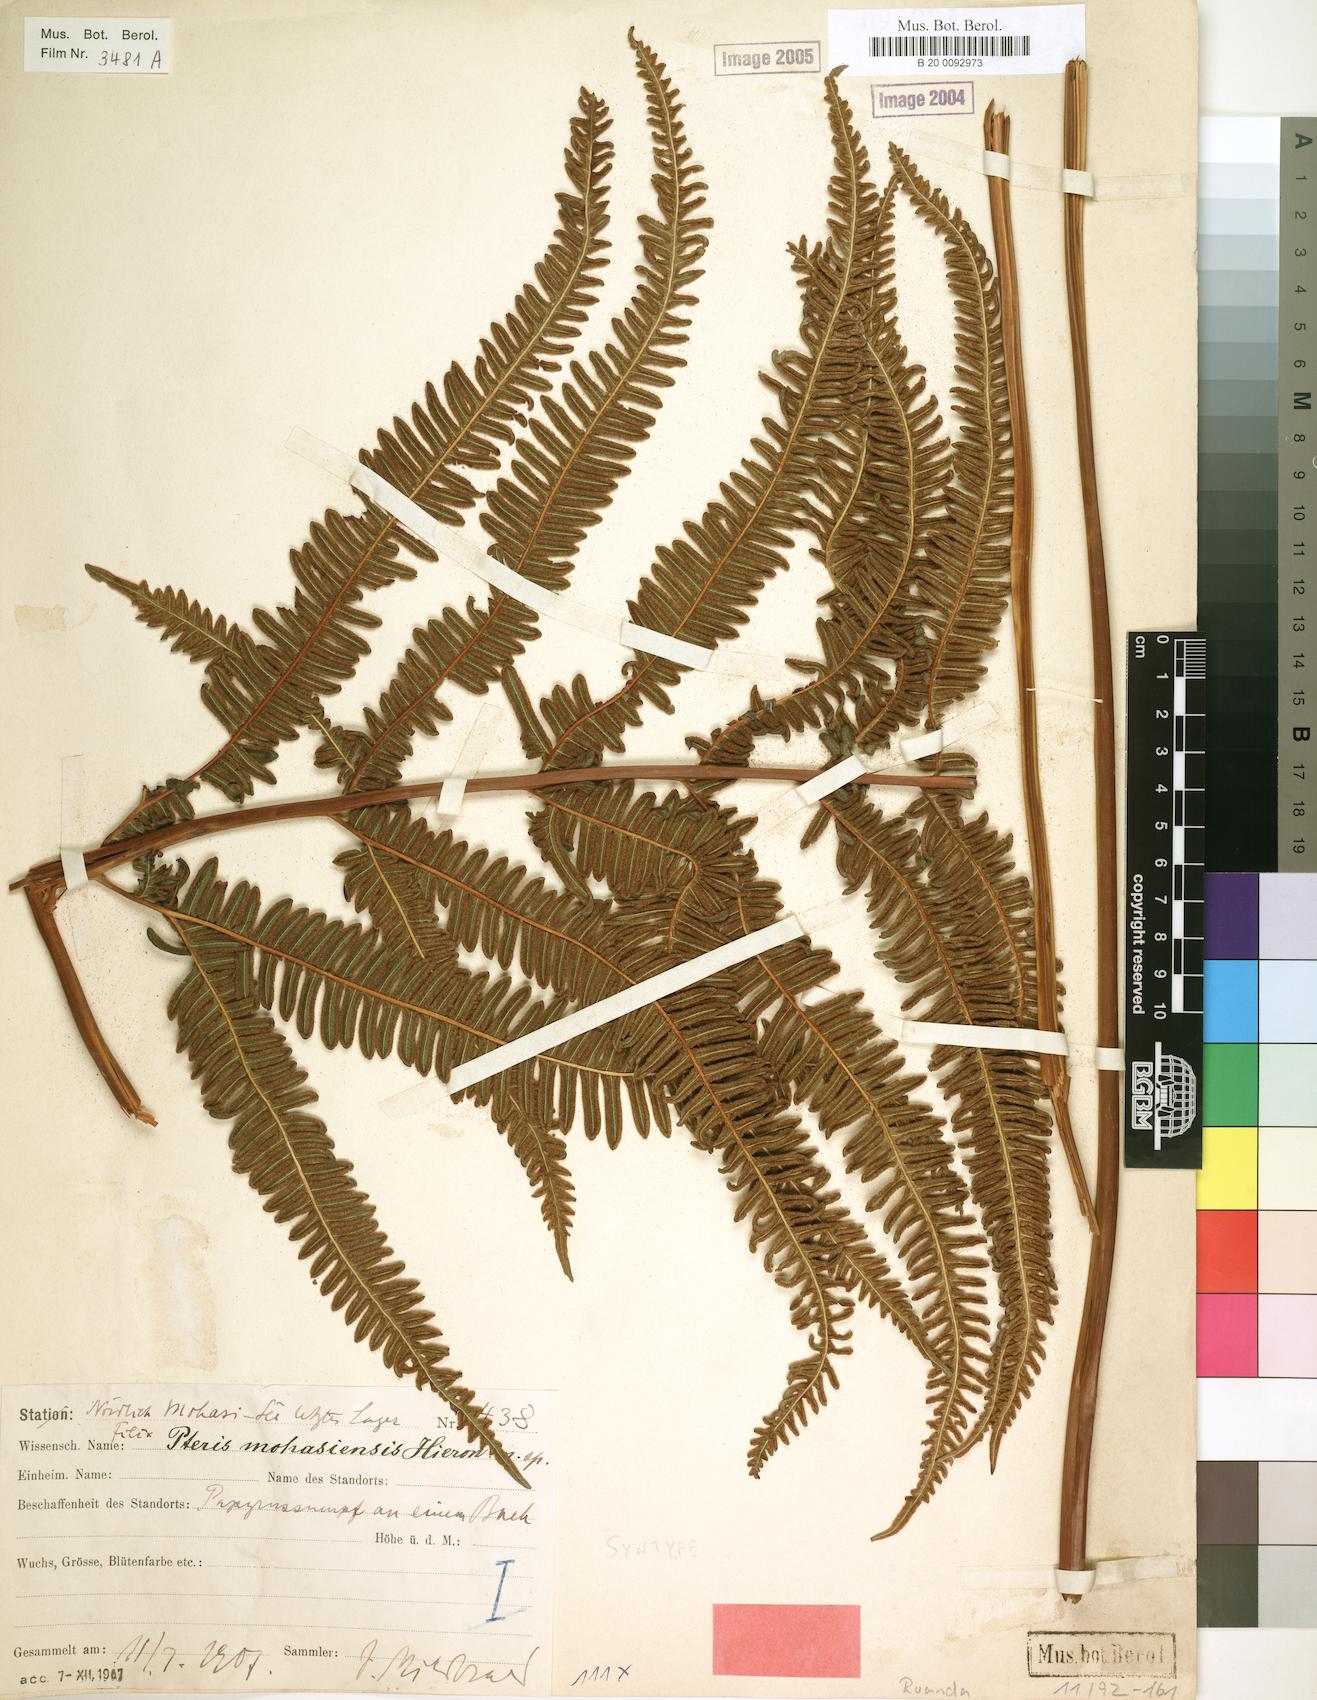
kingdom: Plantae
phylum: Tracheophyta
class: Polypodiopsida
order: Polypodiales
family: Pteridaceae
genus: Pteris
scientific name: Pteris friesii
